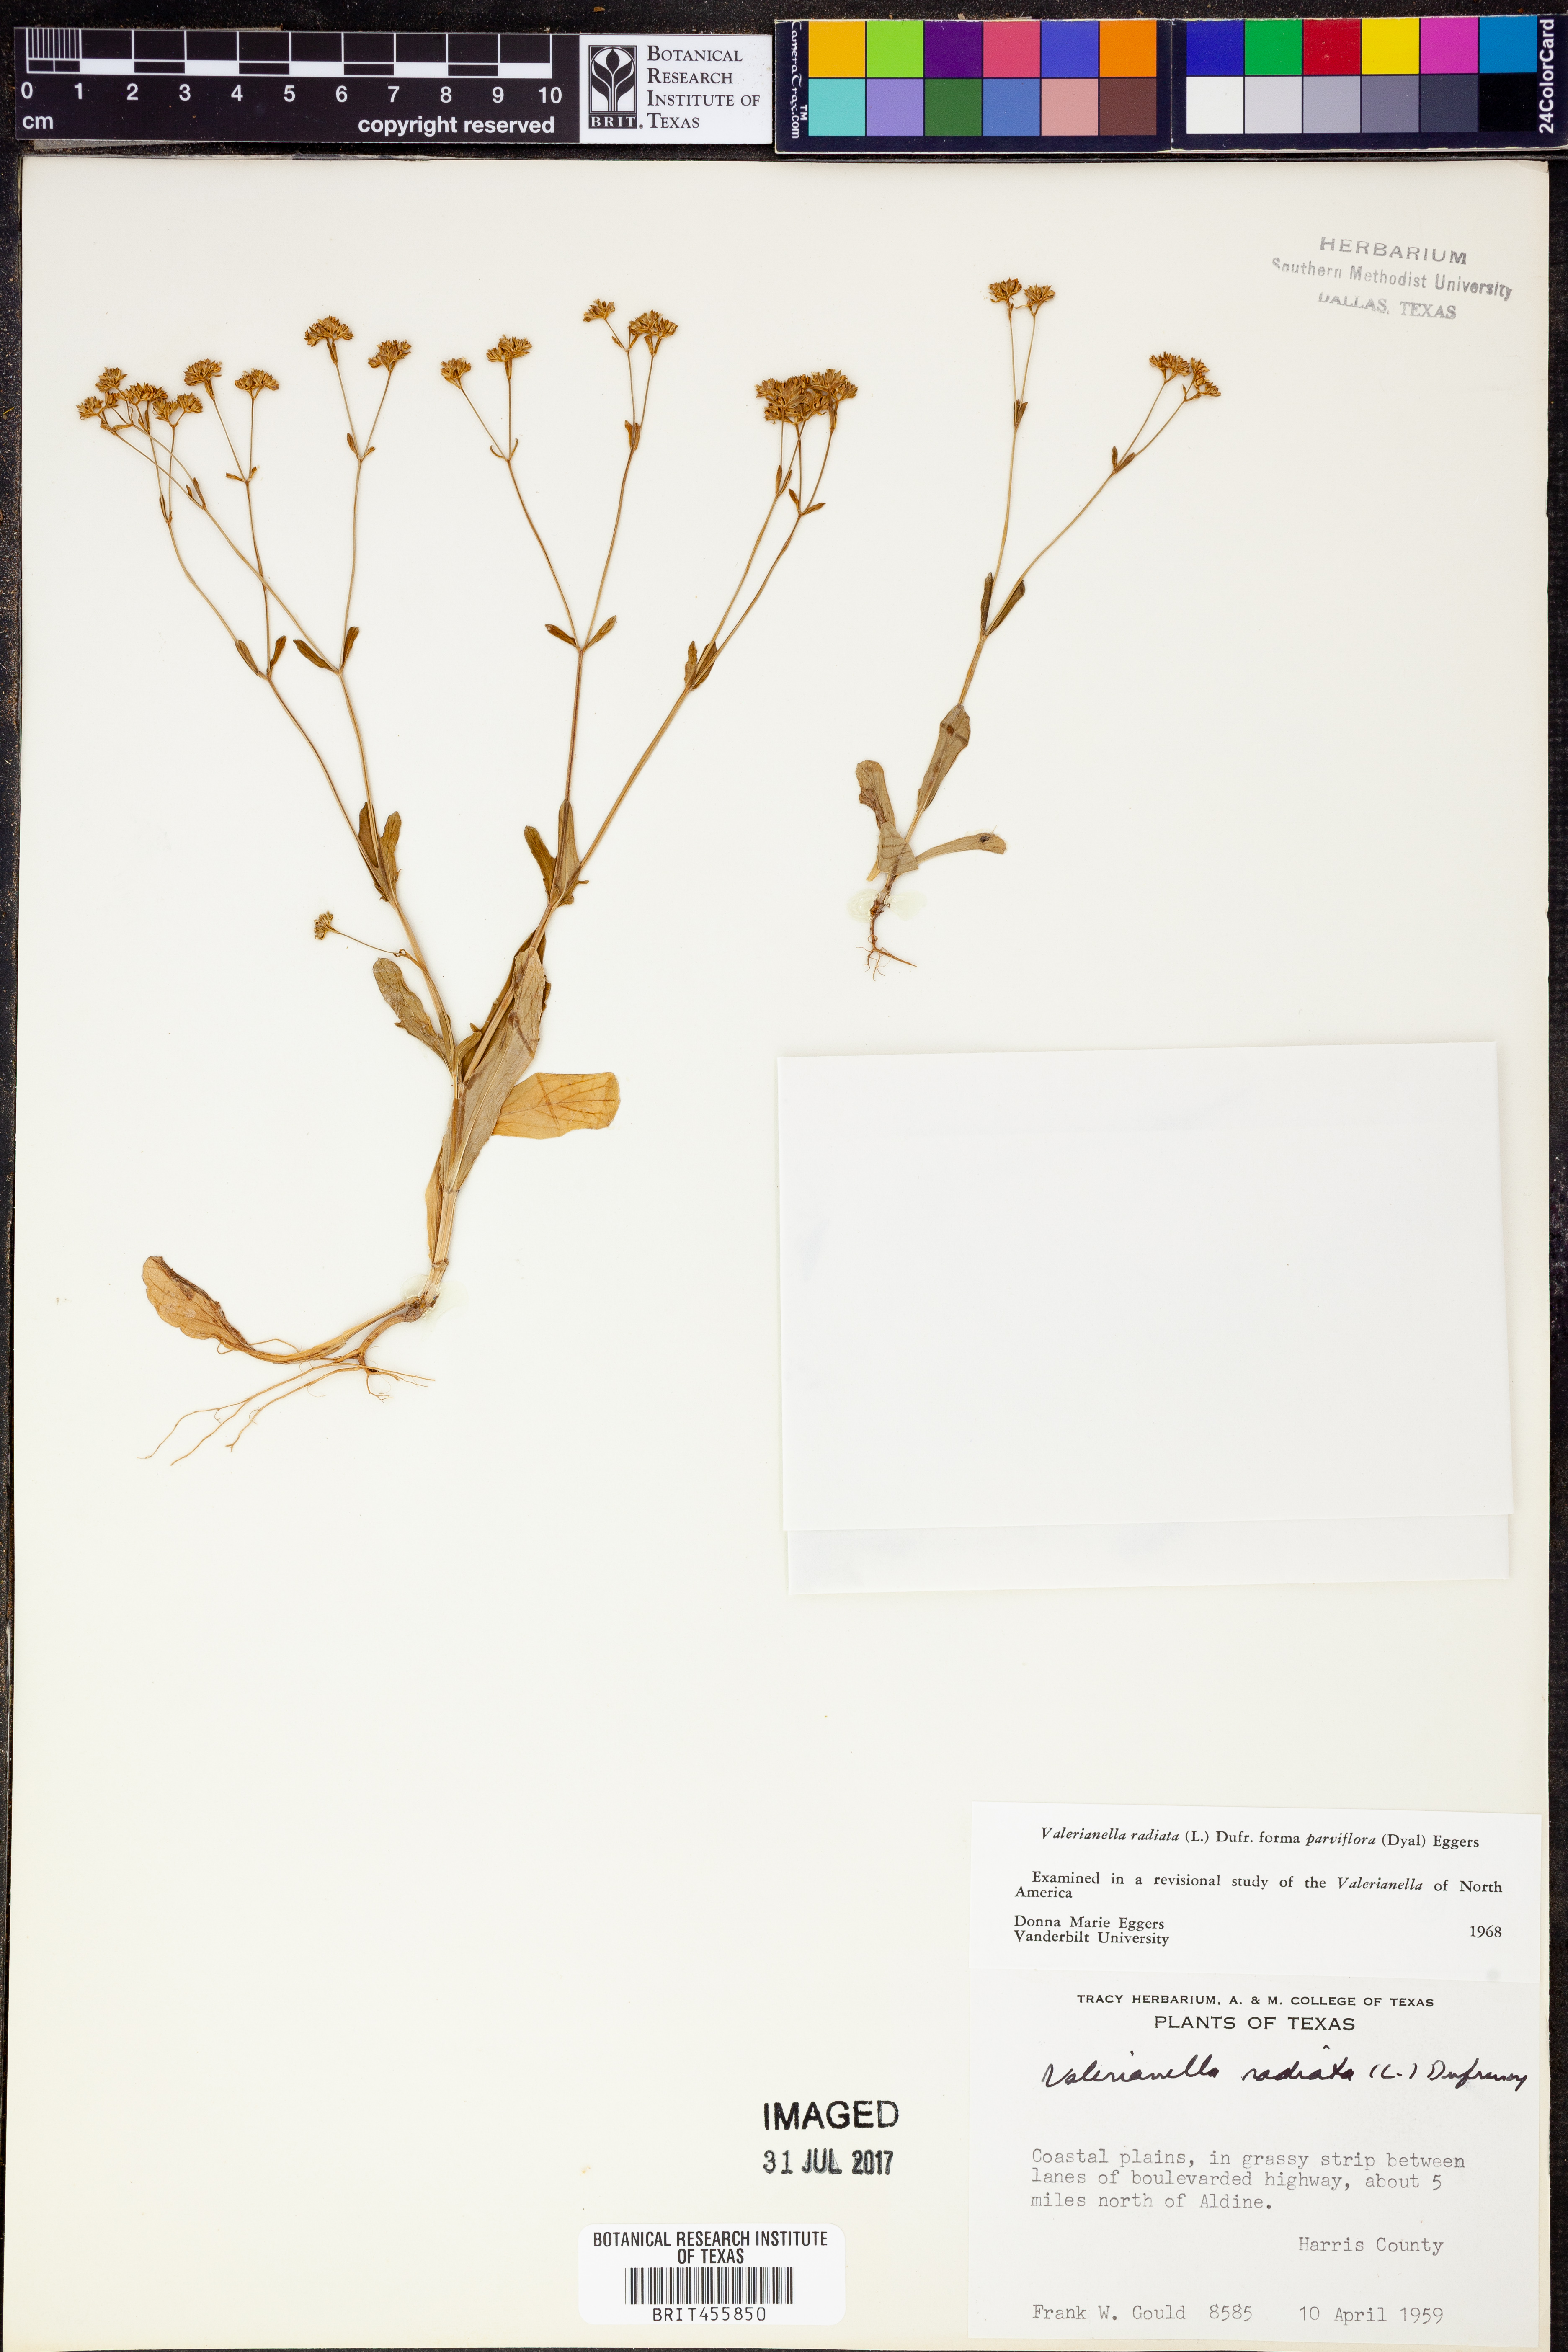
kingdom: Plantae
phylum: Tracheophyta
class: Magnoliopsida
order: Dipsacales
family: Caprifoliaceae
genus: Valerianella
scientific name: Valerianella radiata
